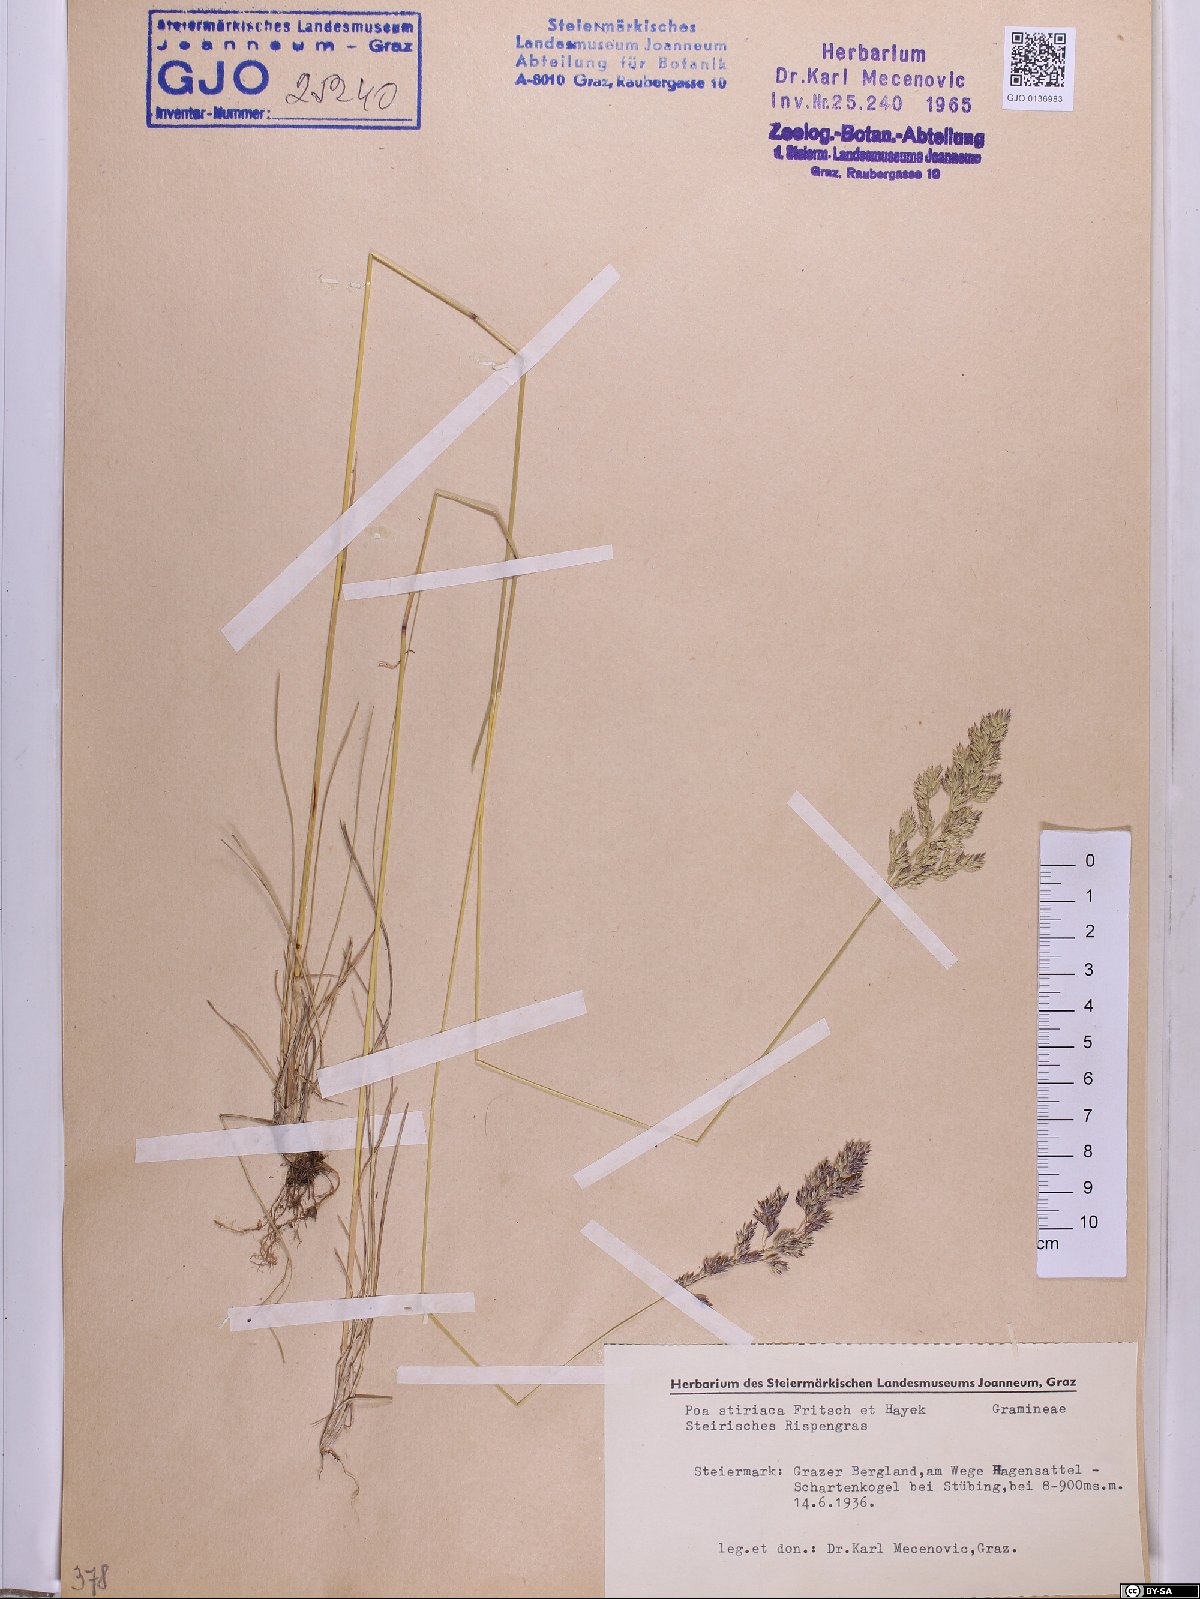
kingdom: Plantae
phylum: Tracheophyta
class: Liliopsida
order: Poales
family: Poaceae
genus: Poa
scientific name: Poa stiriaca
